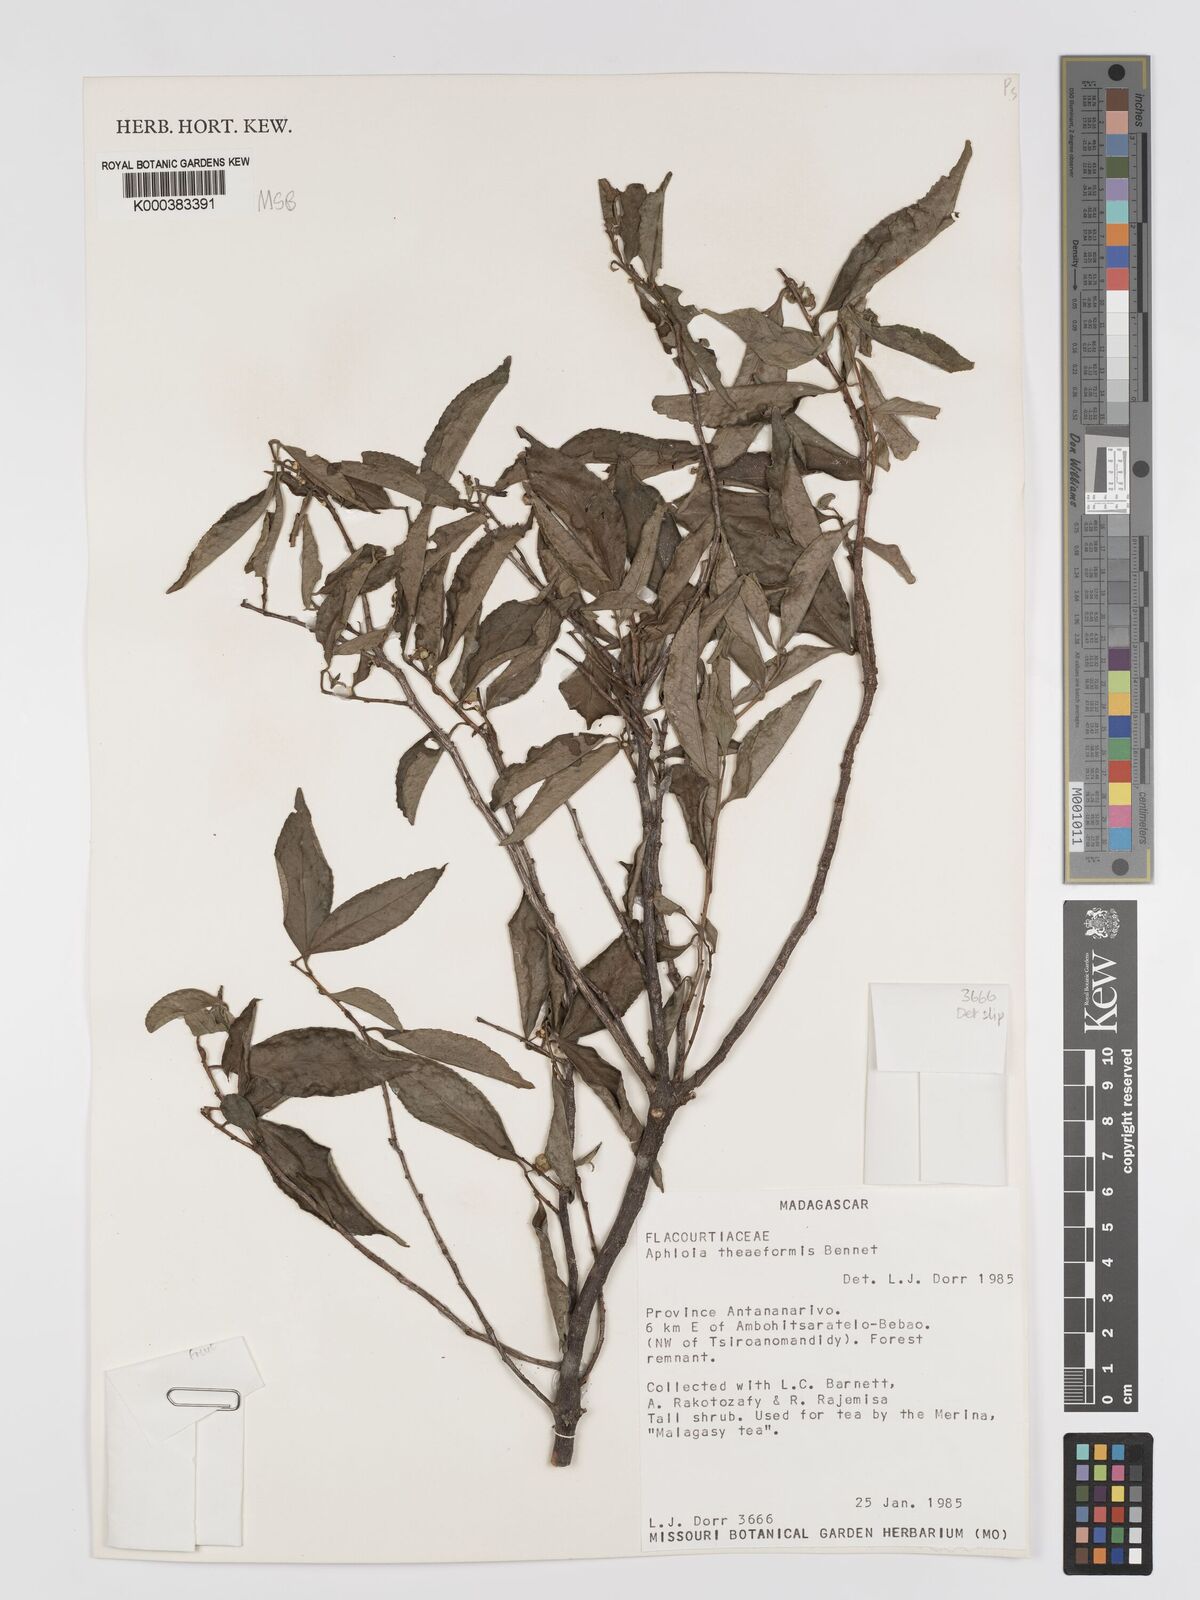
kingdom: Plantae
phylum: Tracheophyta
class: Magnoliopsida
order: Crossosomatales
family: Aphloiaceae
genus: Aphloia
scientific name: Aphloia theiformis
